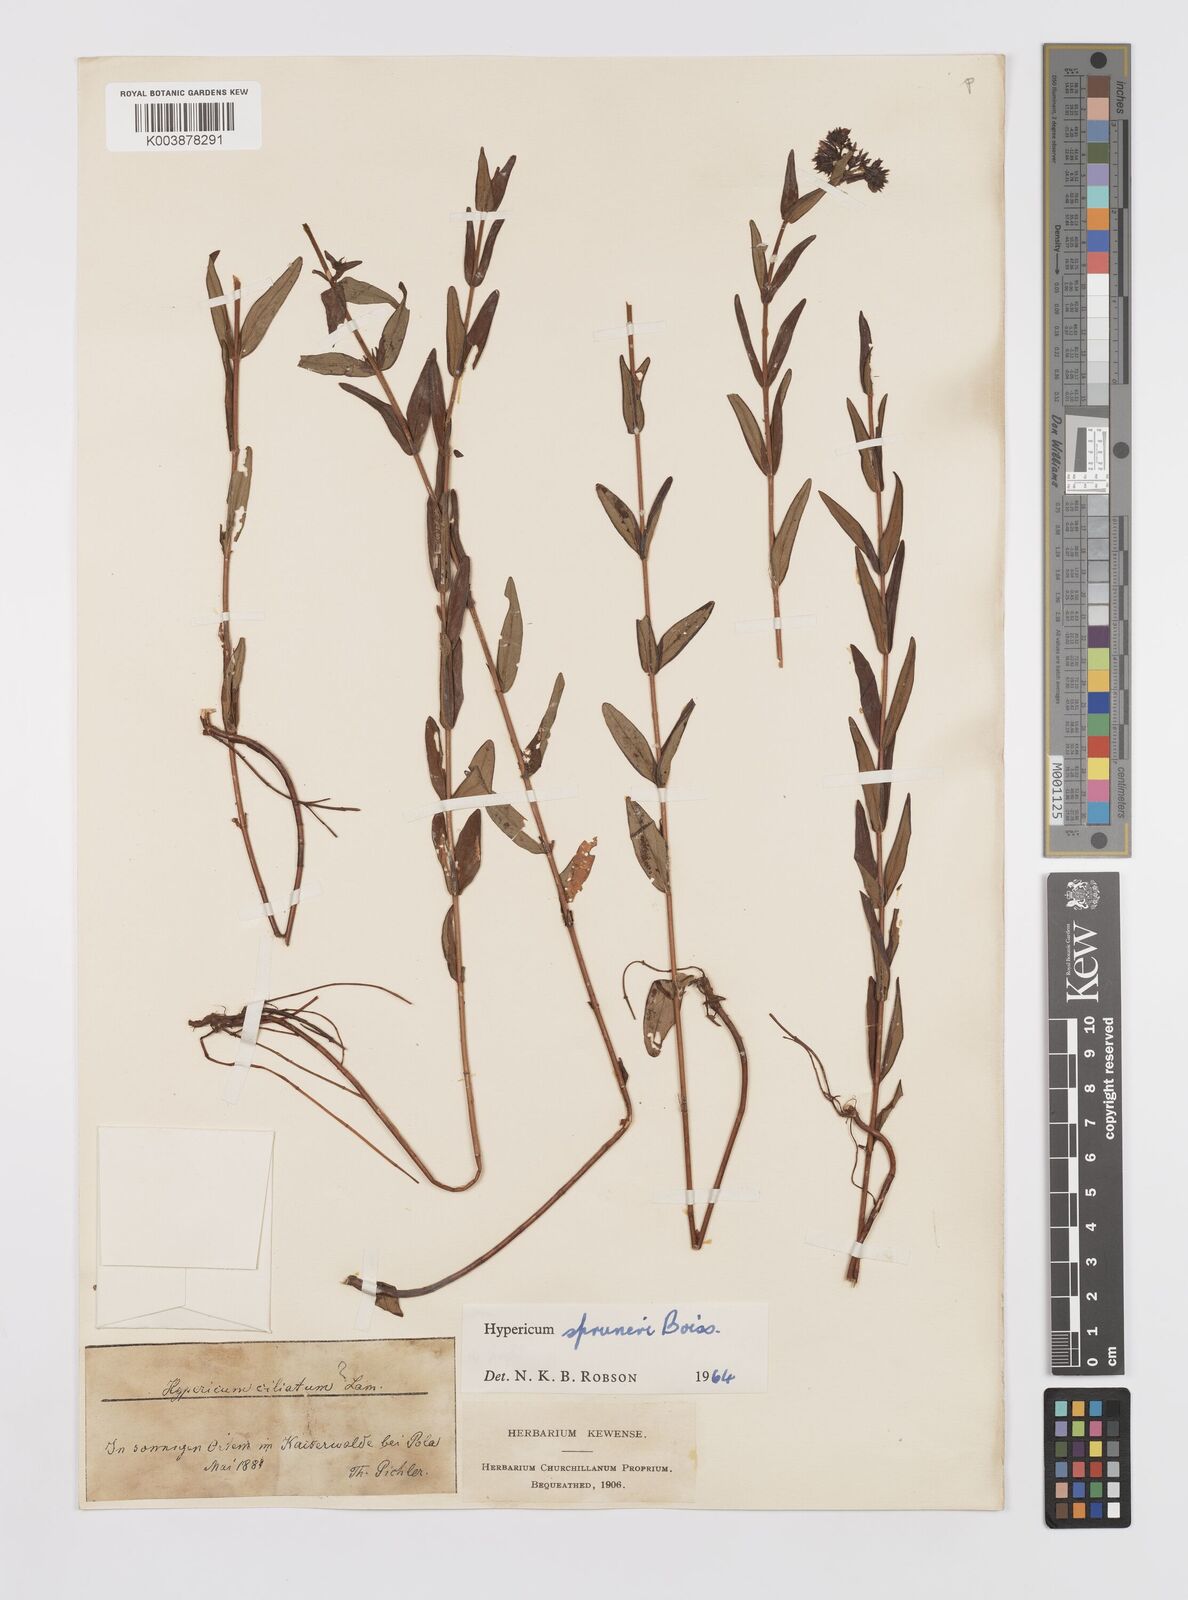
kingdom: Plantae
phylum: Tracheophyta
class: Magnoliopsida
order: Malpighiales
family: Hypericaceae
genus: Hypericum
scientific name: Hypericum spruneri
